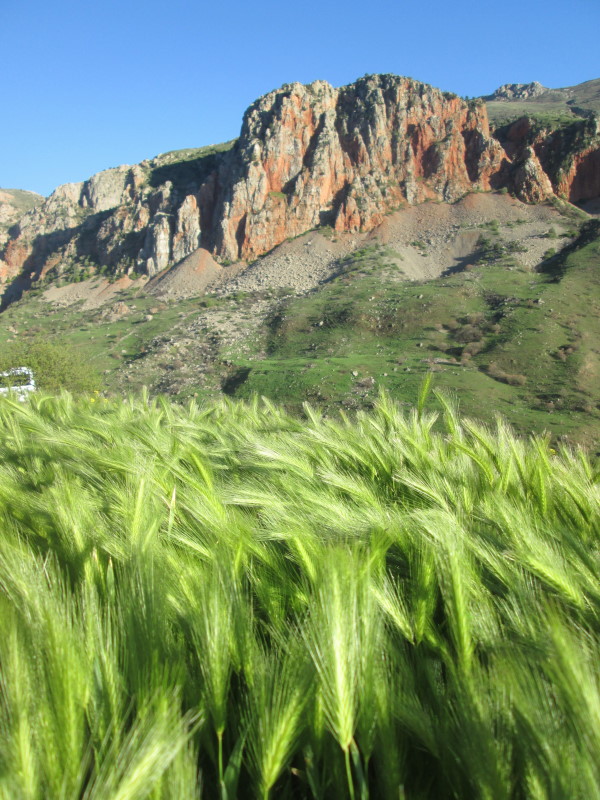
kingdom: Plantae
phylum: Tracheophyta
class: Liliopsida
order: Poales
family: Poaceae
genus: Triticum
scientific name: Triticum timopheevii
